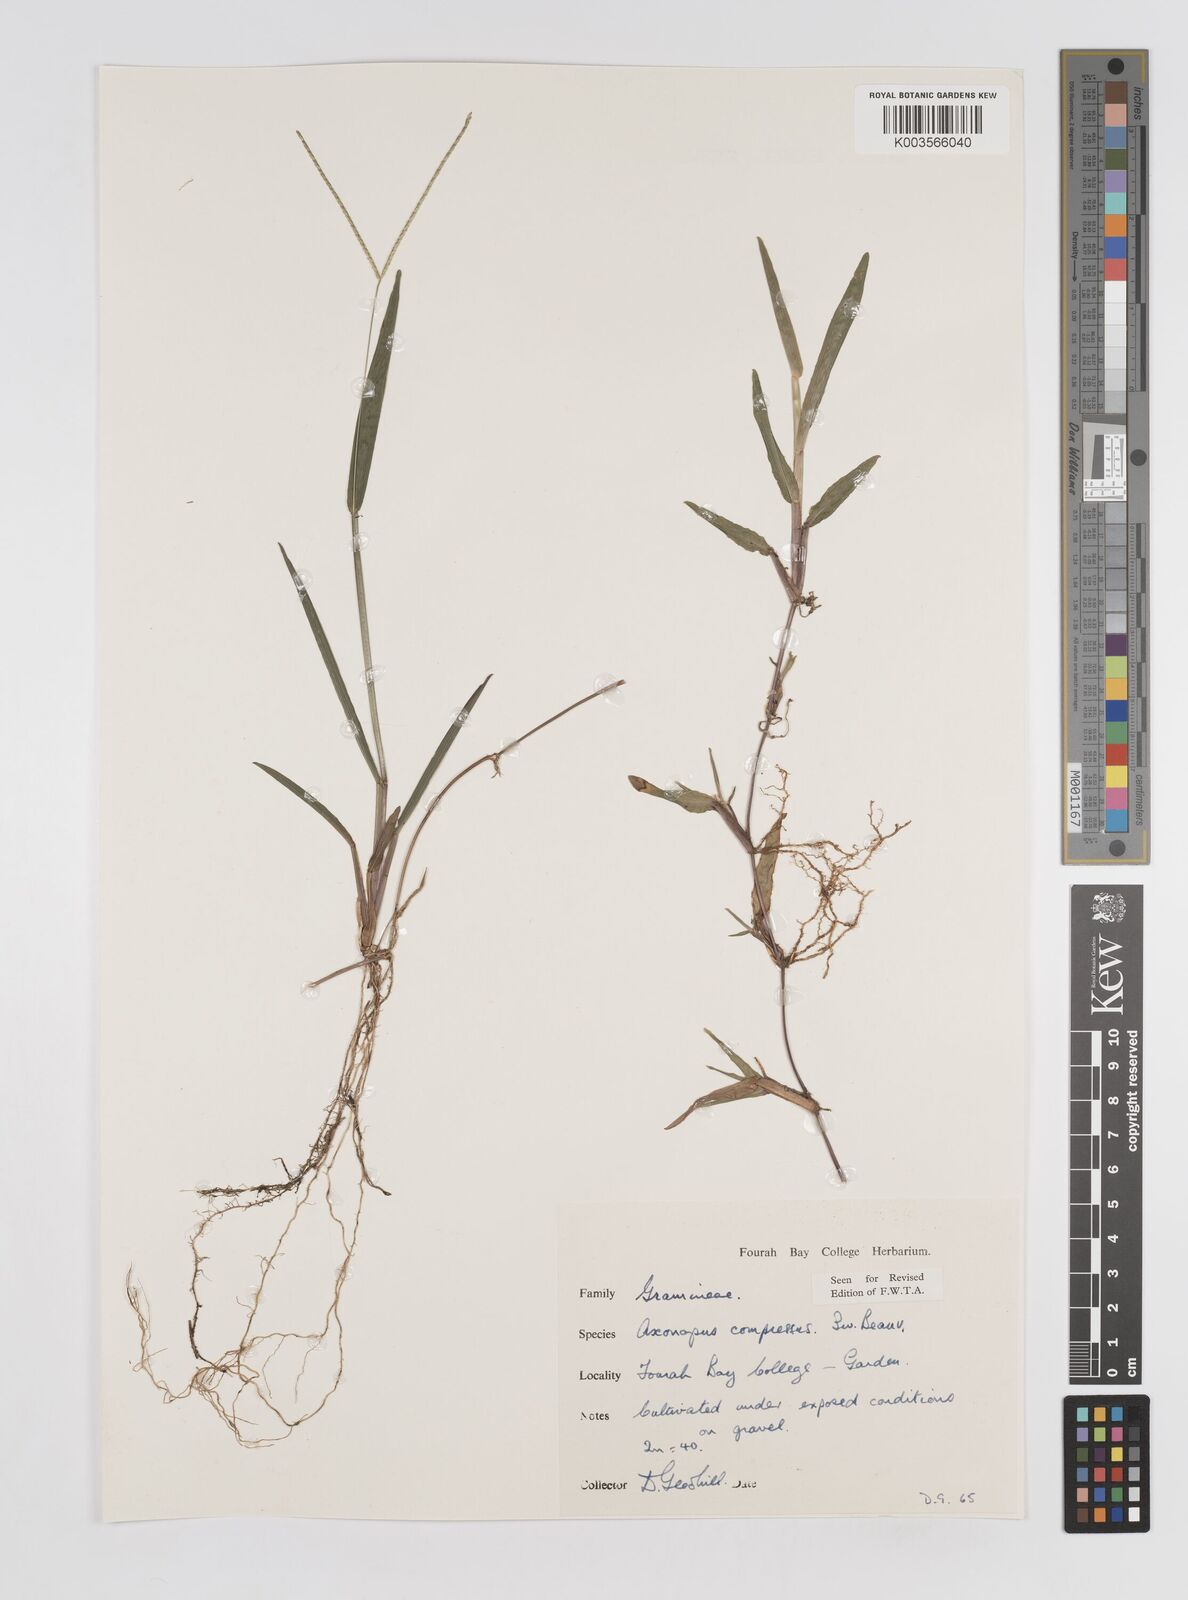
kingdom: Plantae
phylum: Tracheophyta
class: Liliopsida
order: Poales
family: Poaceae
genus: Axonopus
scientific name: Axonopus compressus
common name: American carpet grass
